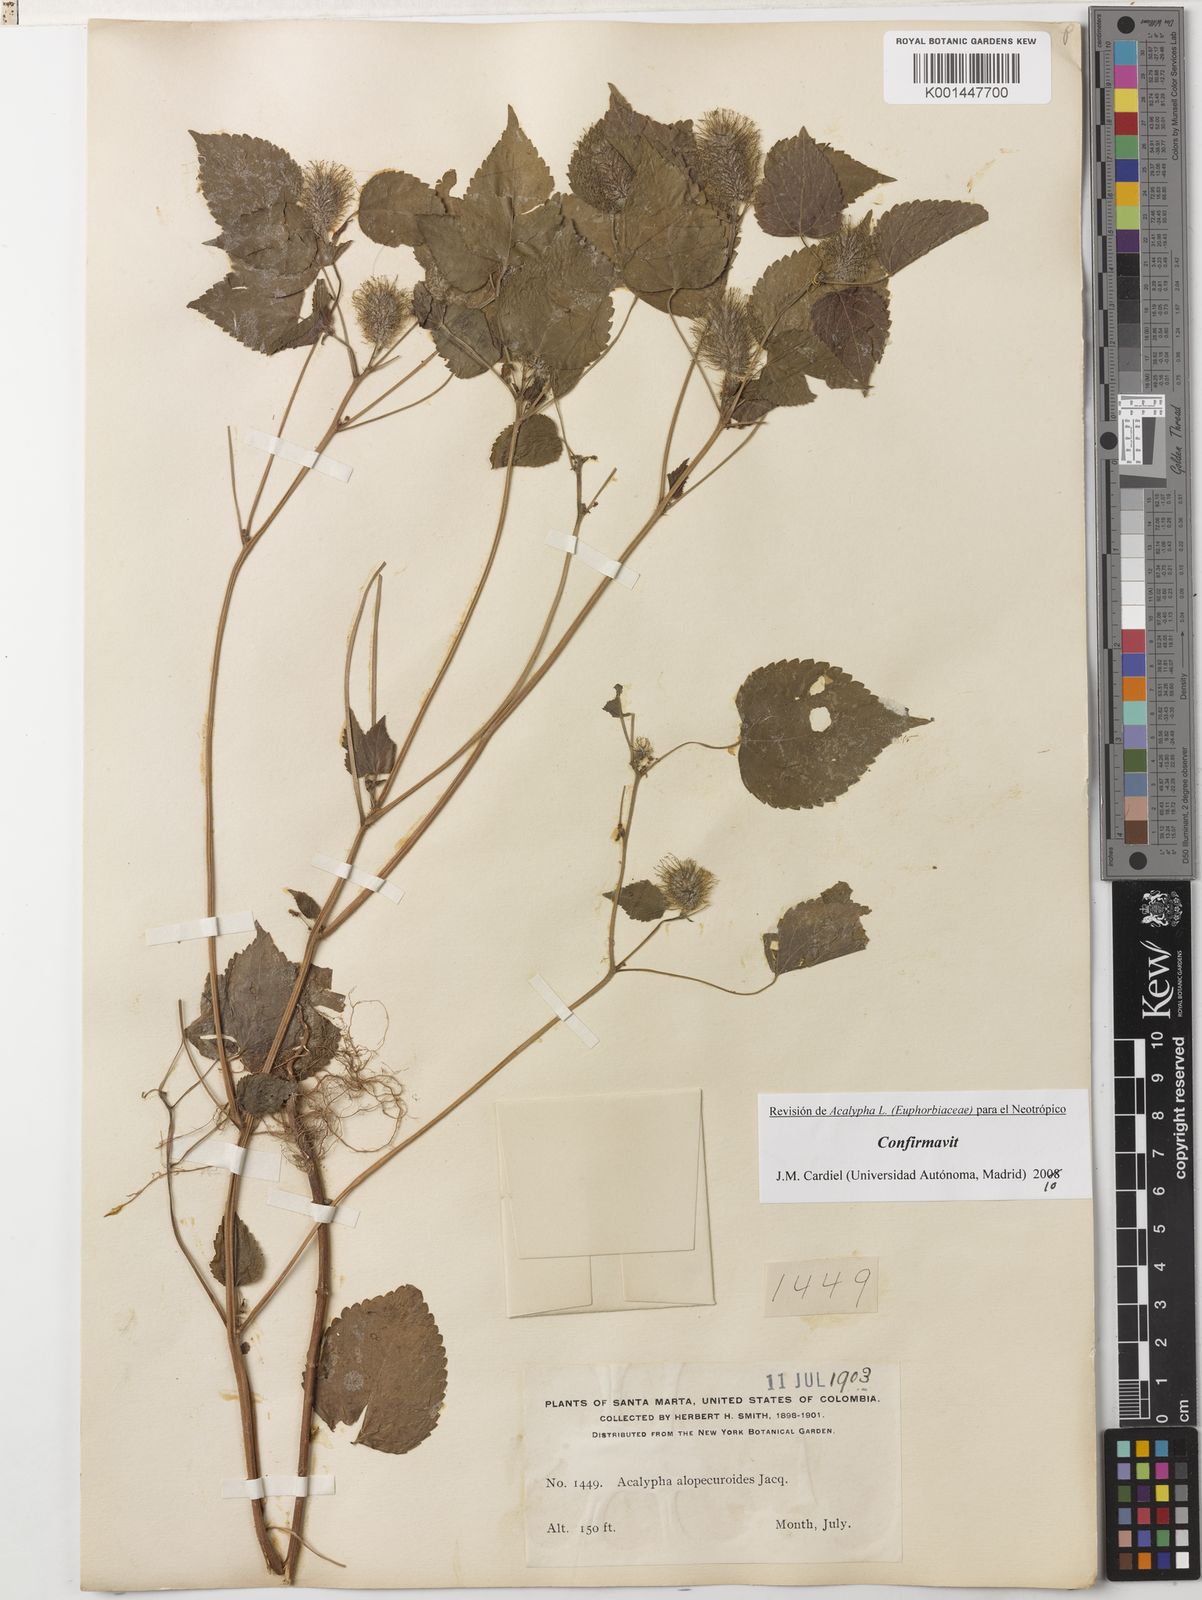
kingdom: Plantae
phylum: Tracheophyta
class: Magnoliopsida
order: Malpighiales
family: Euphorbiaceae
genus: Acalypha
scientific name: Acalypha alopecuroidea
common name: Foxtail copperleaf
